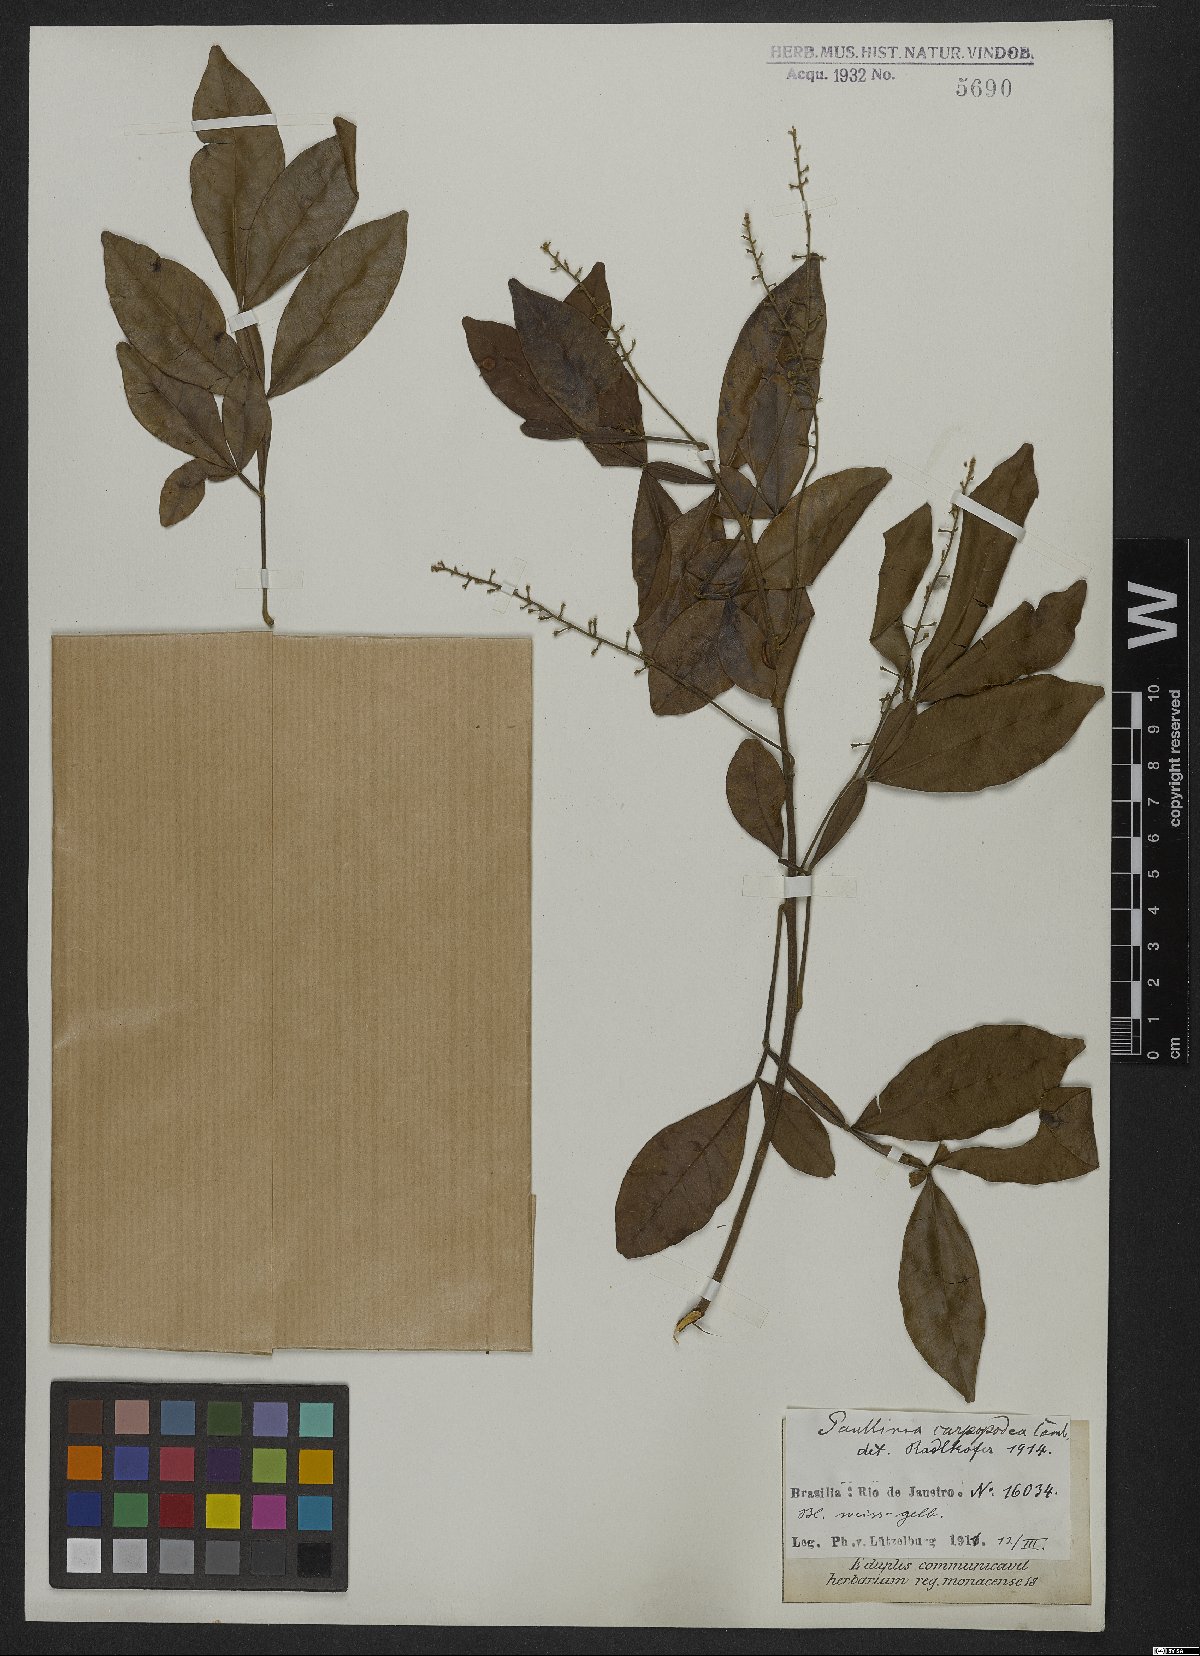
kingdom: Plantae
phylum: Tracheophyta
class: Magnoliopsida
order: Sapindales
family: Sapindaceae
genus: Paullinia
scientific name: Paullinia carpopoda
